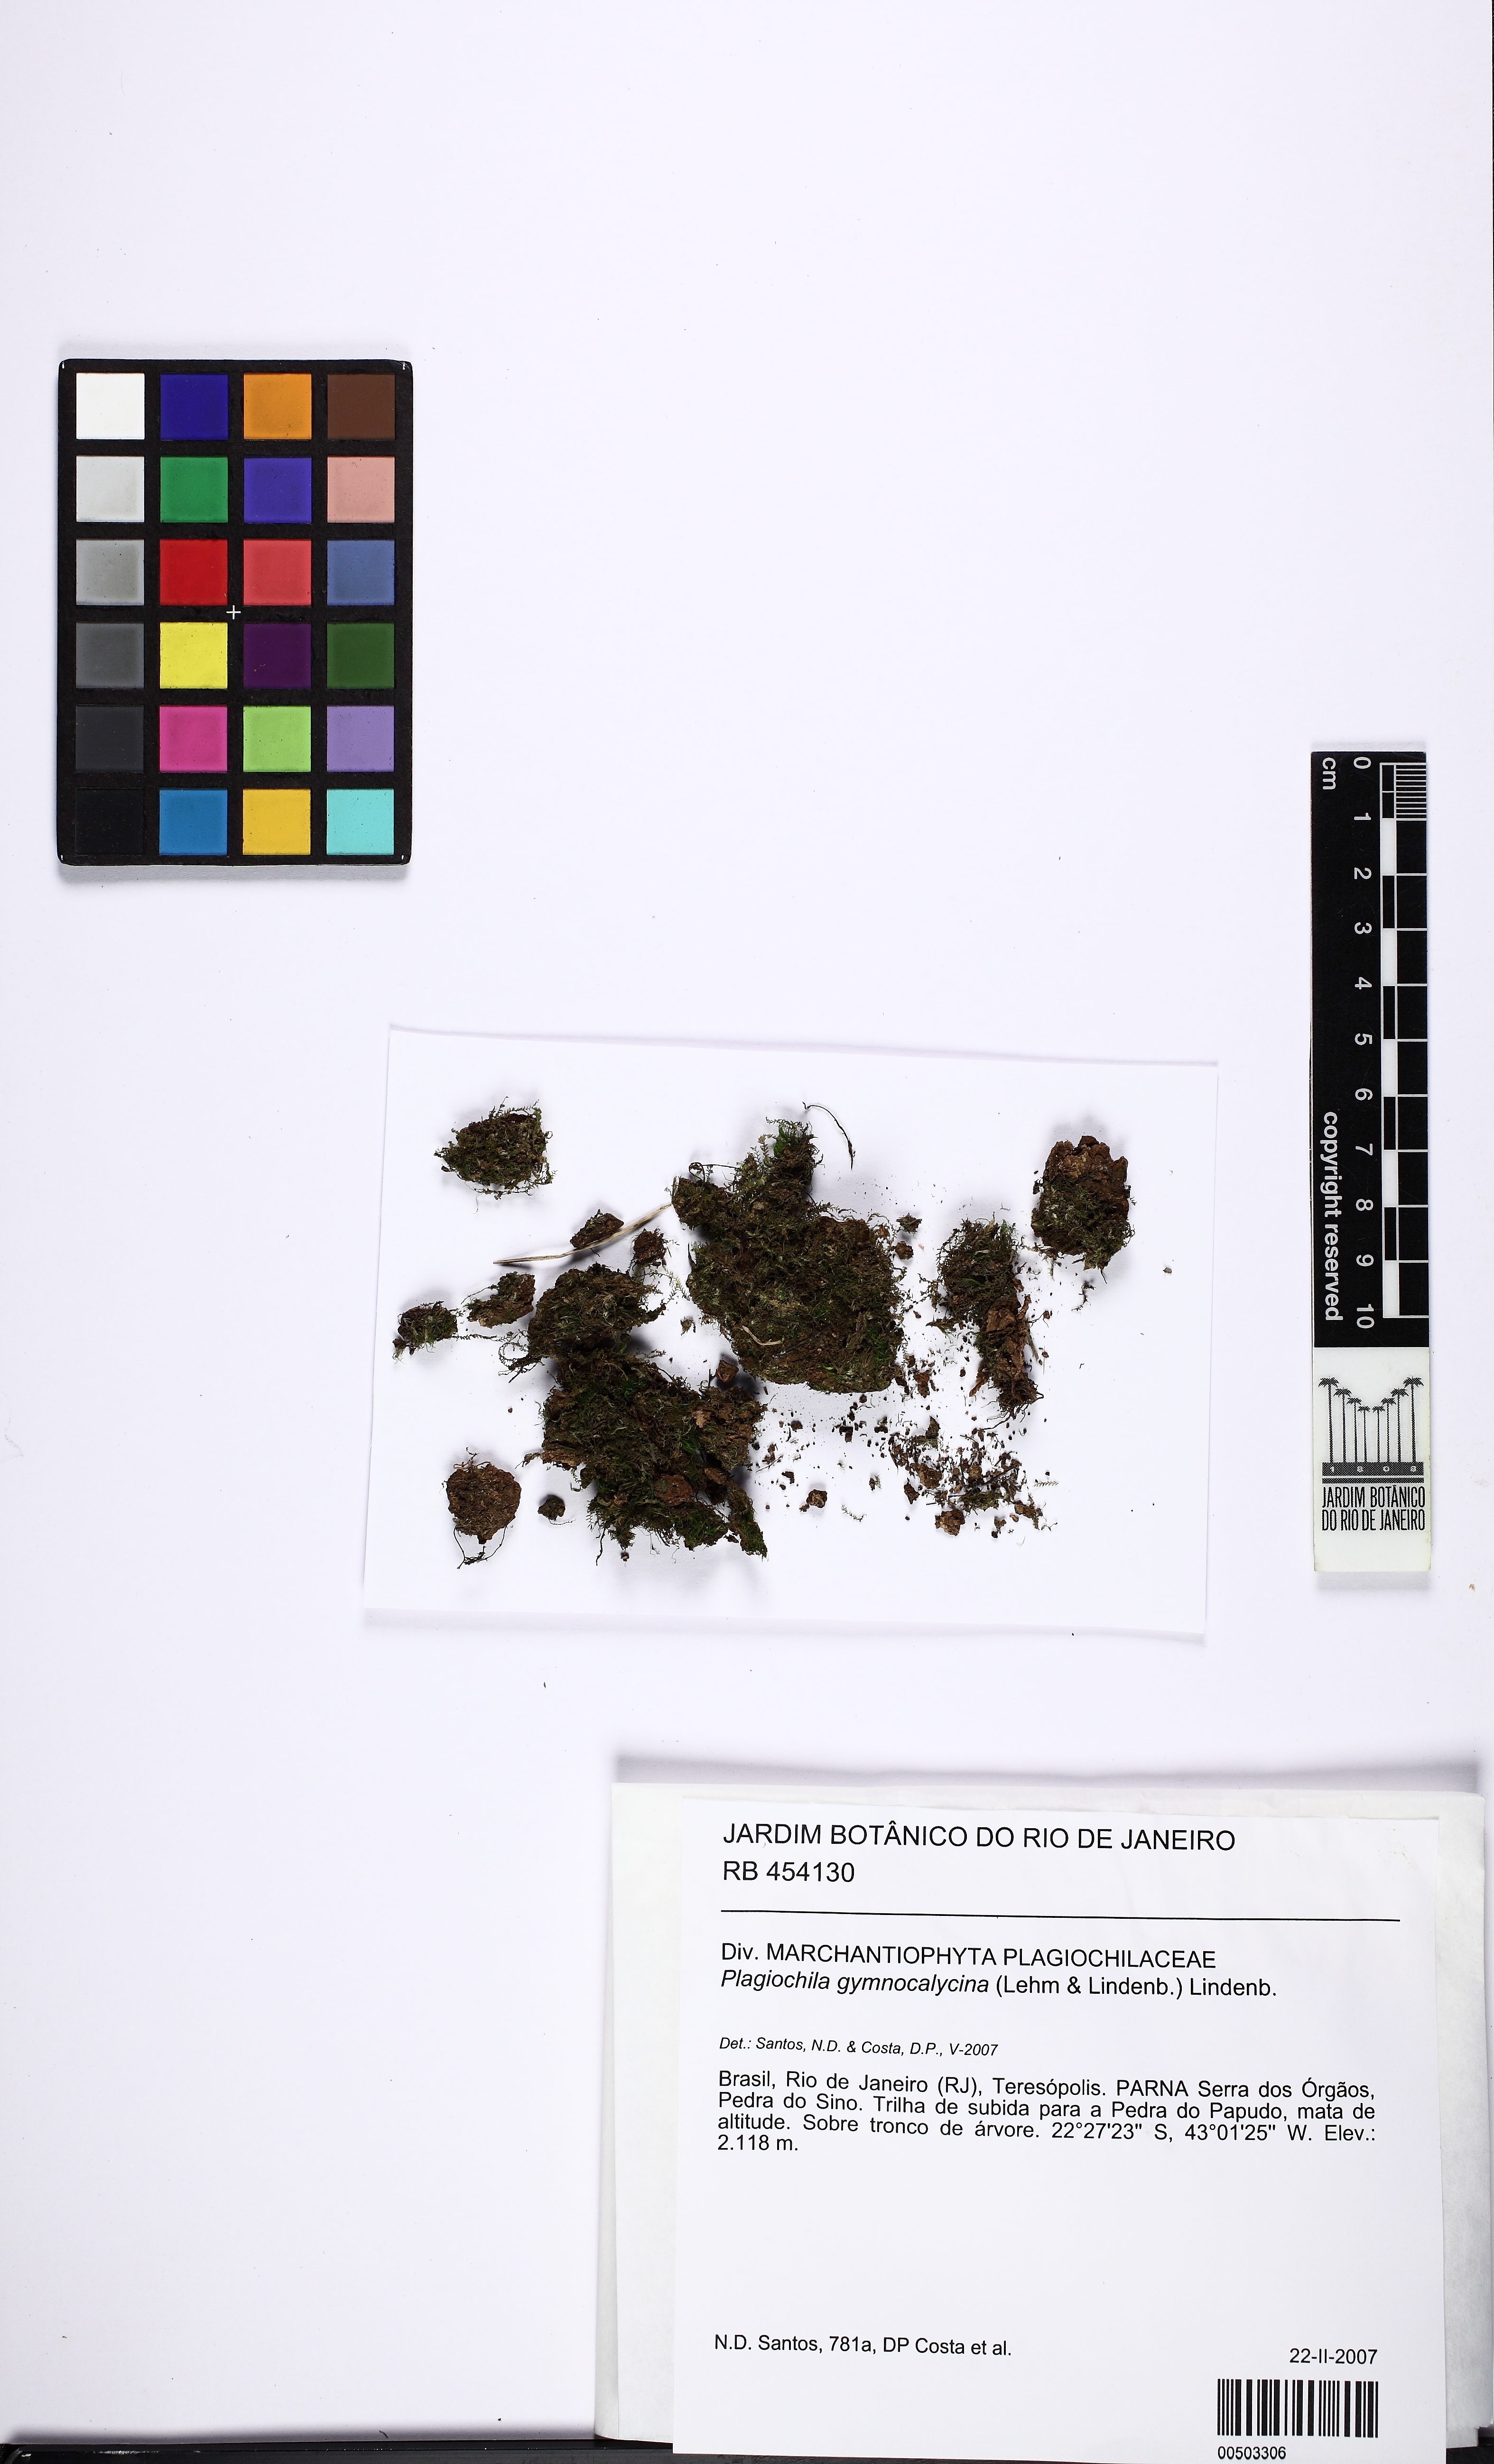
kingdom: Plantae
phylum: Marchantiophyta
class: Jungermanniopsida
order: Jungermanniales
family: Plagiochilaceae
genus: Plagiochila
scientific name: Plagiochila gymnocalycina
